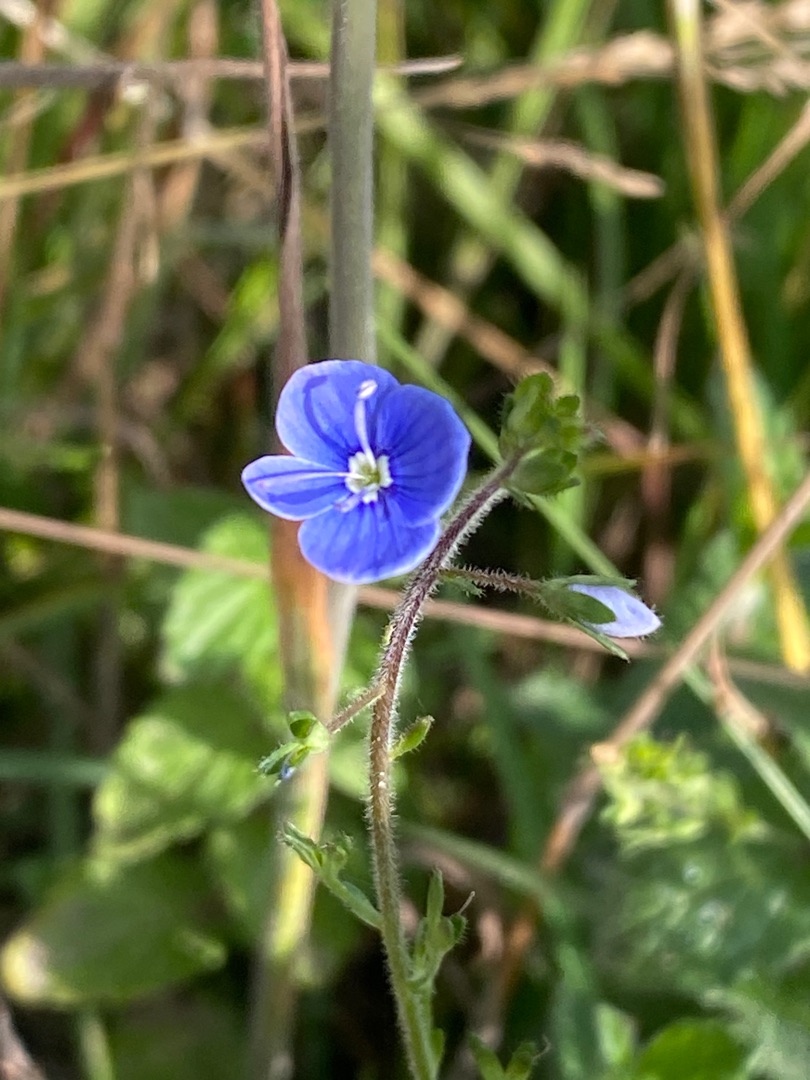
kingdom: Plantae
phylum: Tracheophyta
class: Magnoliopsida
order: Lamiales
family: Plantaginaceae
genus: Veronica
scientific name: Veronica chamaedrys
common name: Tveskægget ærenpris
